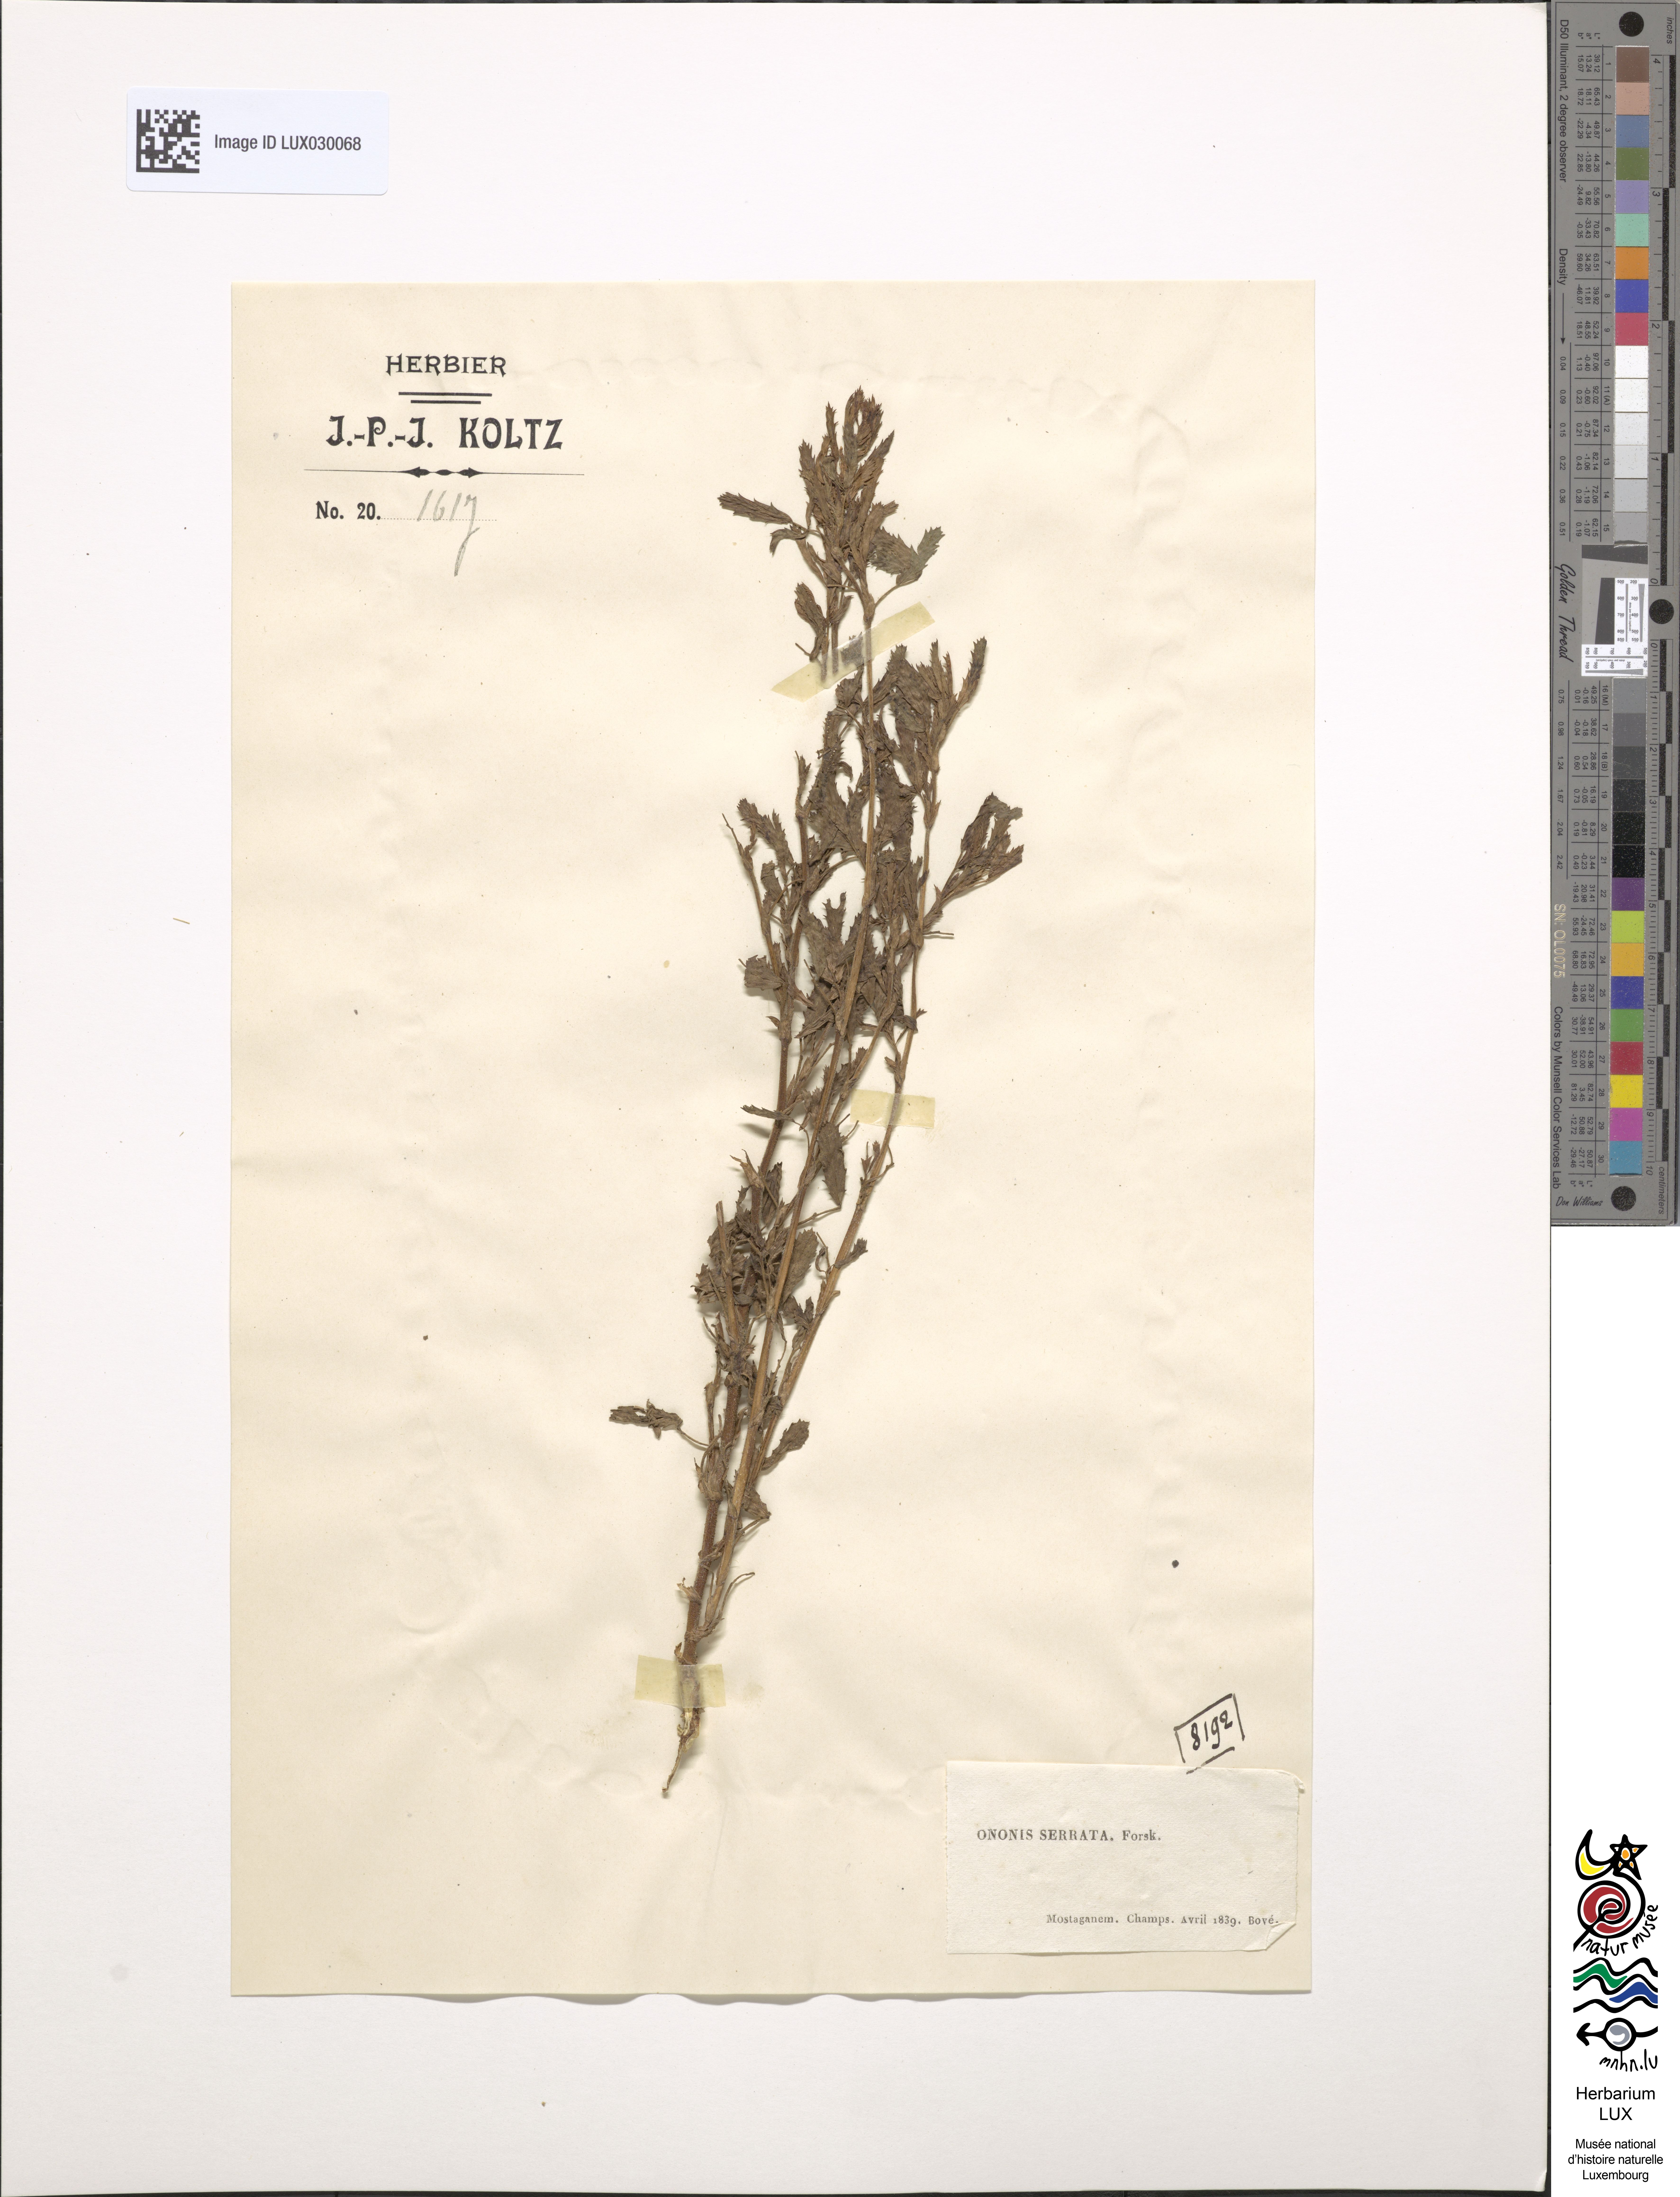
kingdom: Plantae
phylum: Tracheophyta
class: Magnoliopsida
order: Fabales
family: Fabaceae
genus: Ononis
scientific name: Ononis serrata
